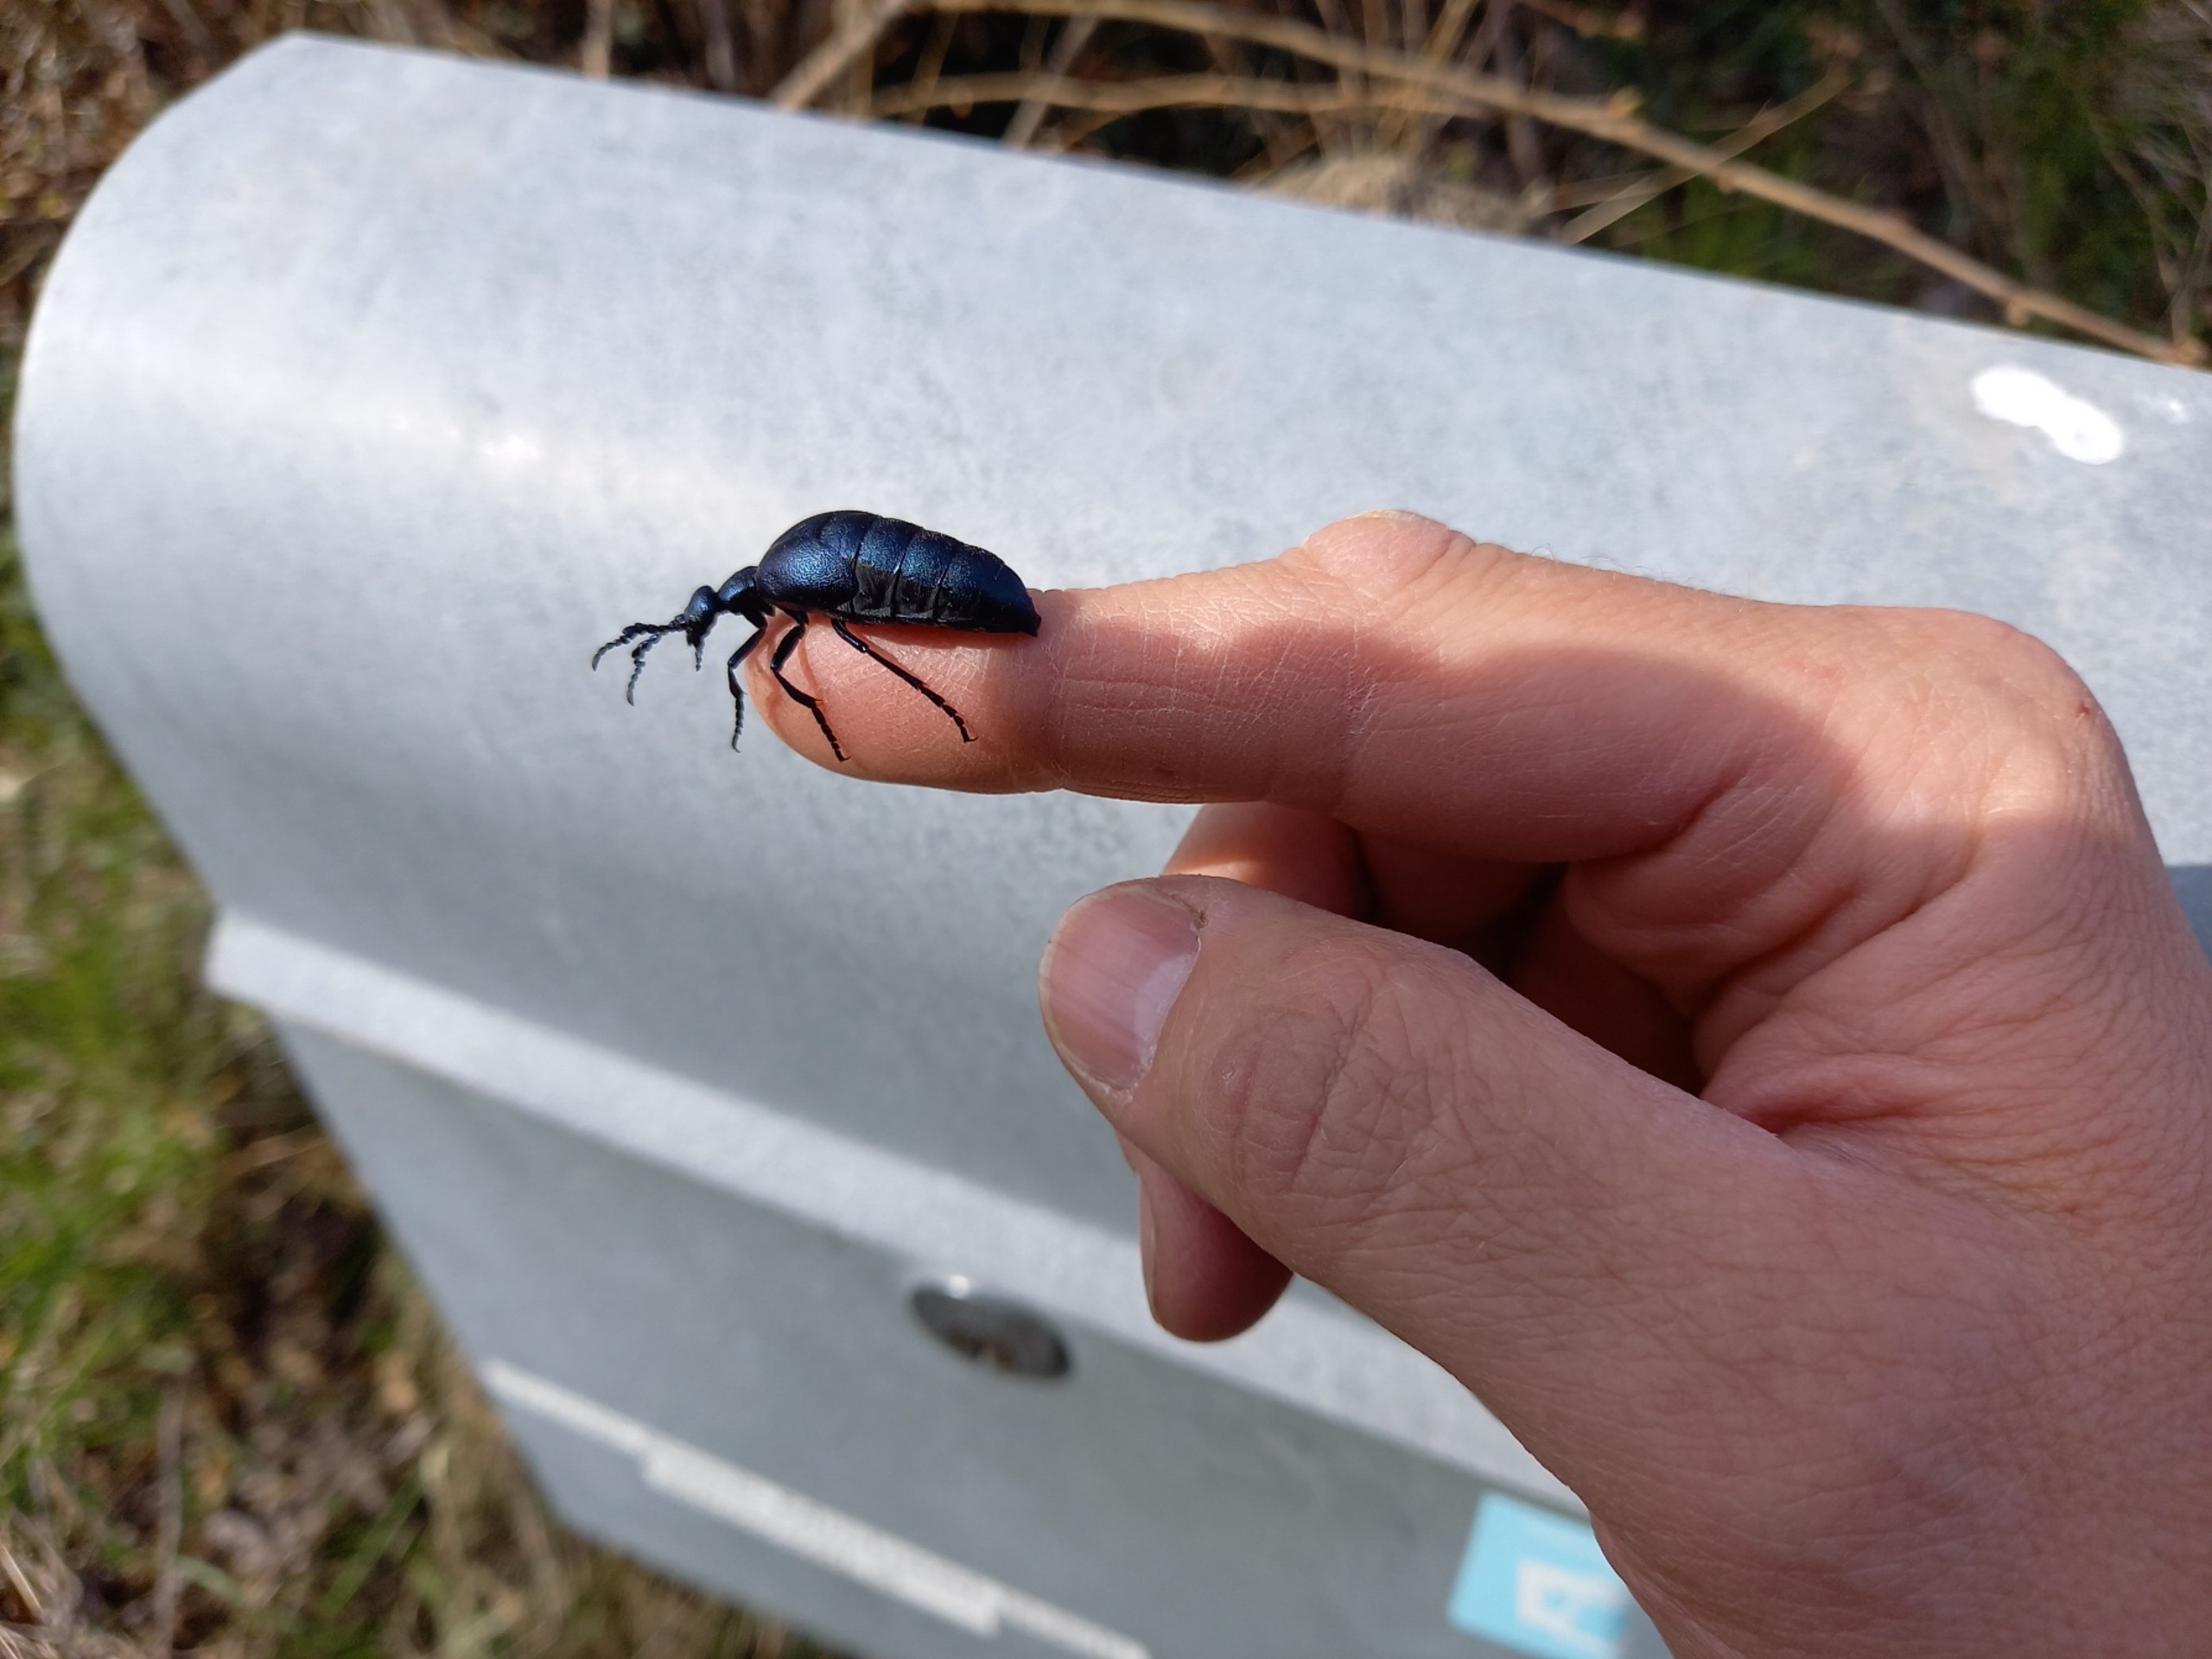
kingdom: Animalia
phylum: Arthropoda
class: Insecta
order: Coleoptera
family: Meloidae
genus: Meloe
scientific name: Meloe violaceus
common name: Blå oliebille
